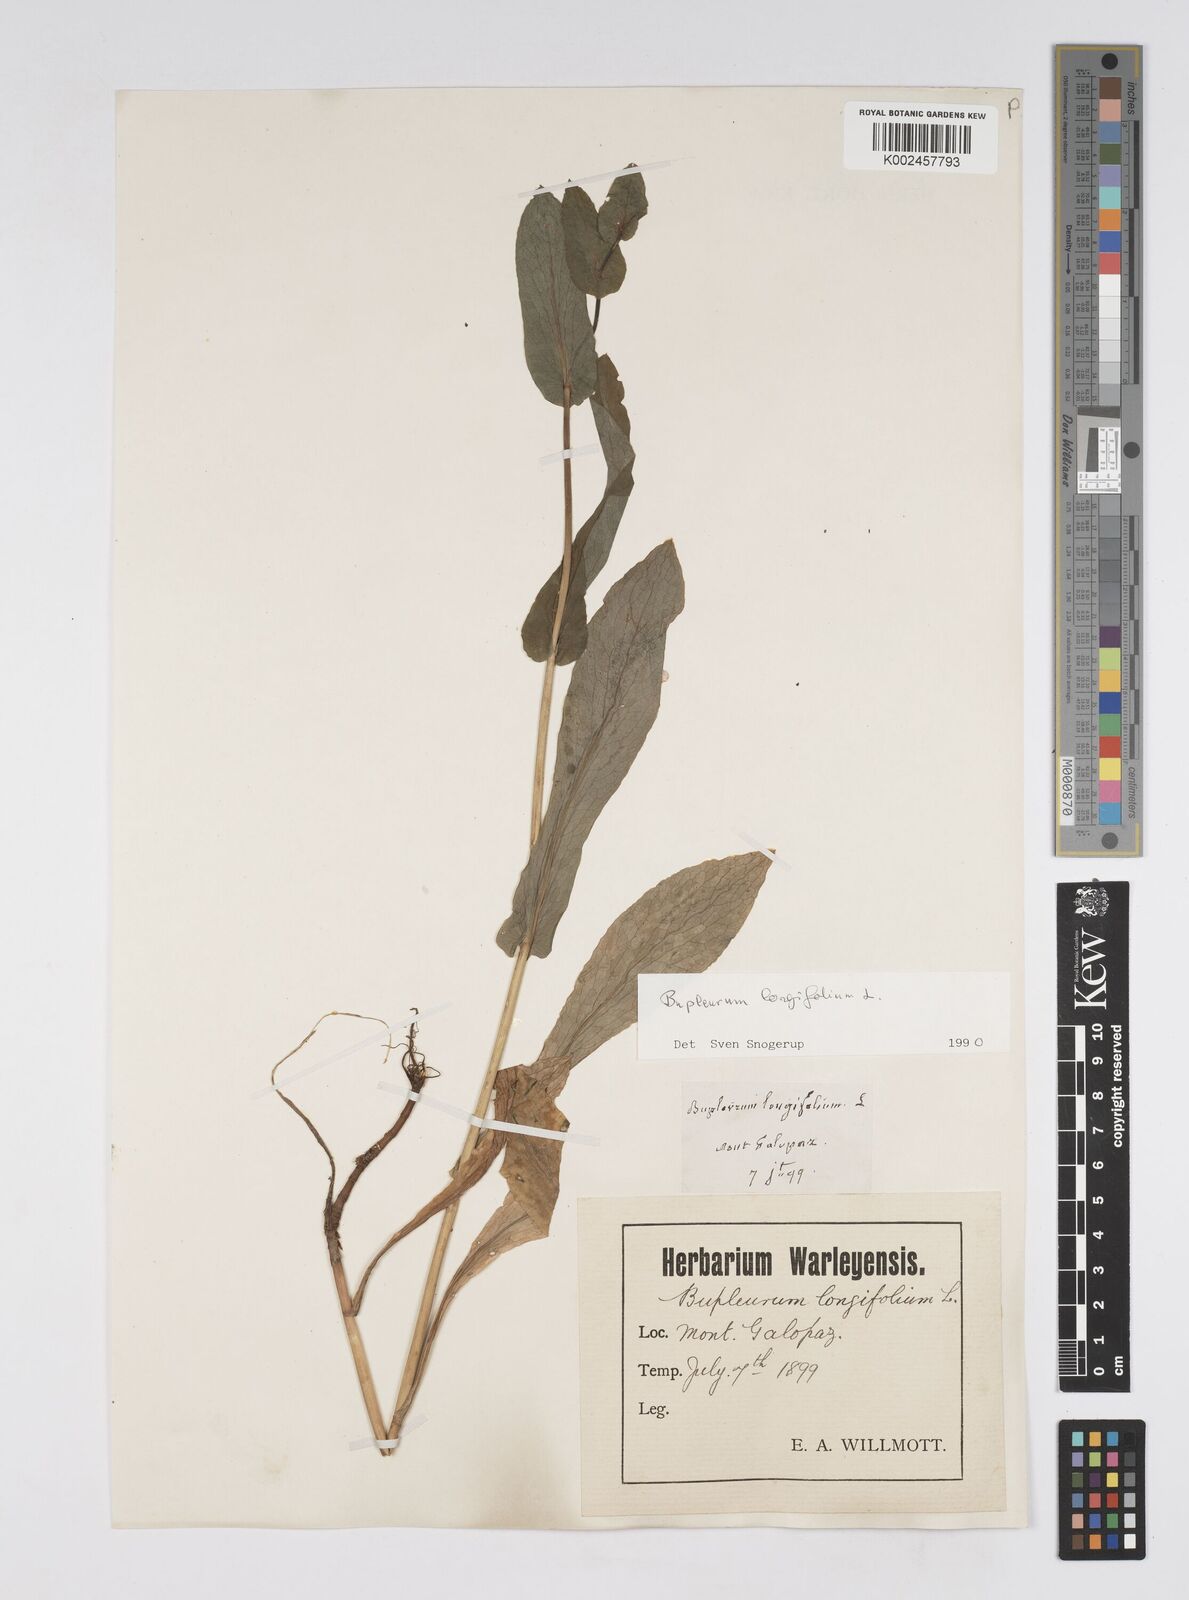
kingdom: Plantae
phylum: Tracheophyta
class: Magnoliopsida
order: Apiales
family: Apiaceae
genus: Bupleurum
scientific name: Bupleurum longifolium
